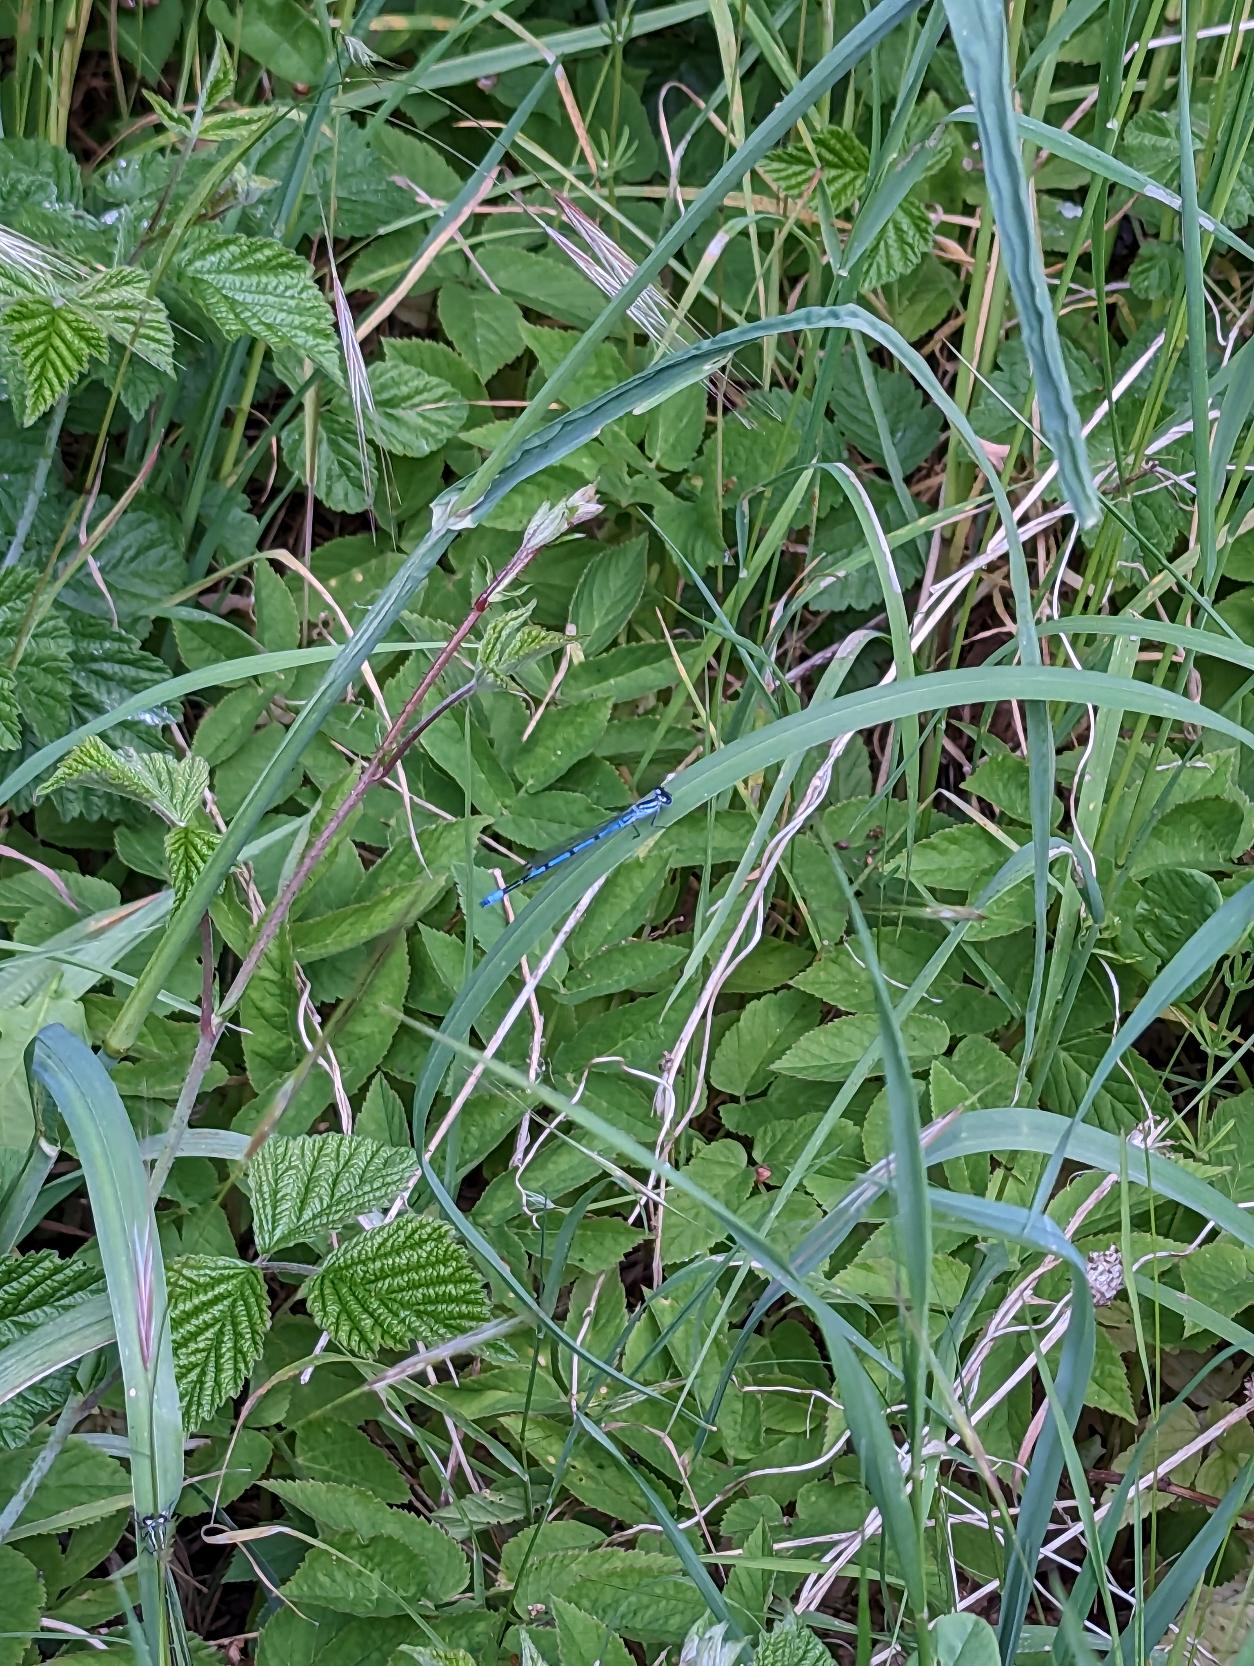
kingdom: Animalia
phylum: Arthropoda
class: Insecta
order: Odonata
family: Coenagrionidae
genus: Coenagrion
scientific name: Coenagrion puella
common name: Hestesko-vandnymfe
